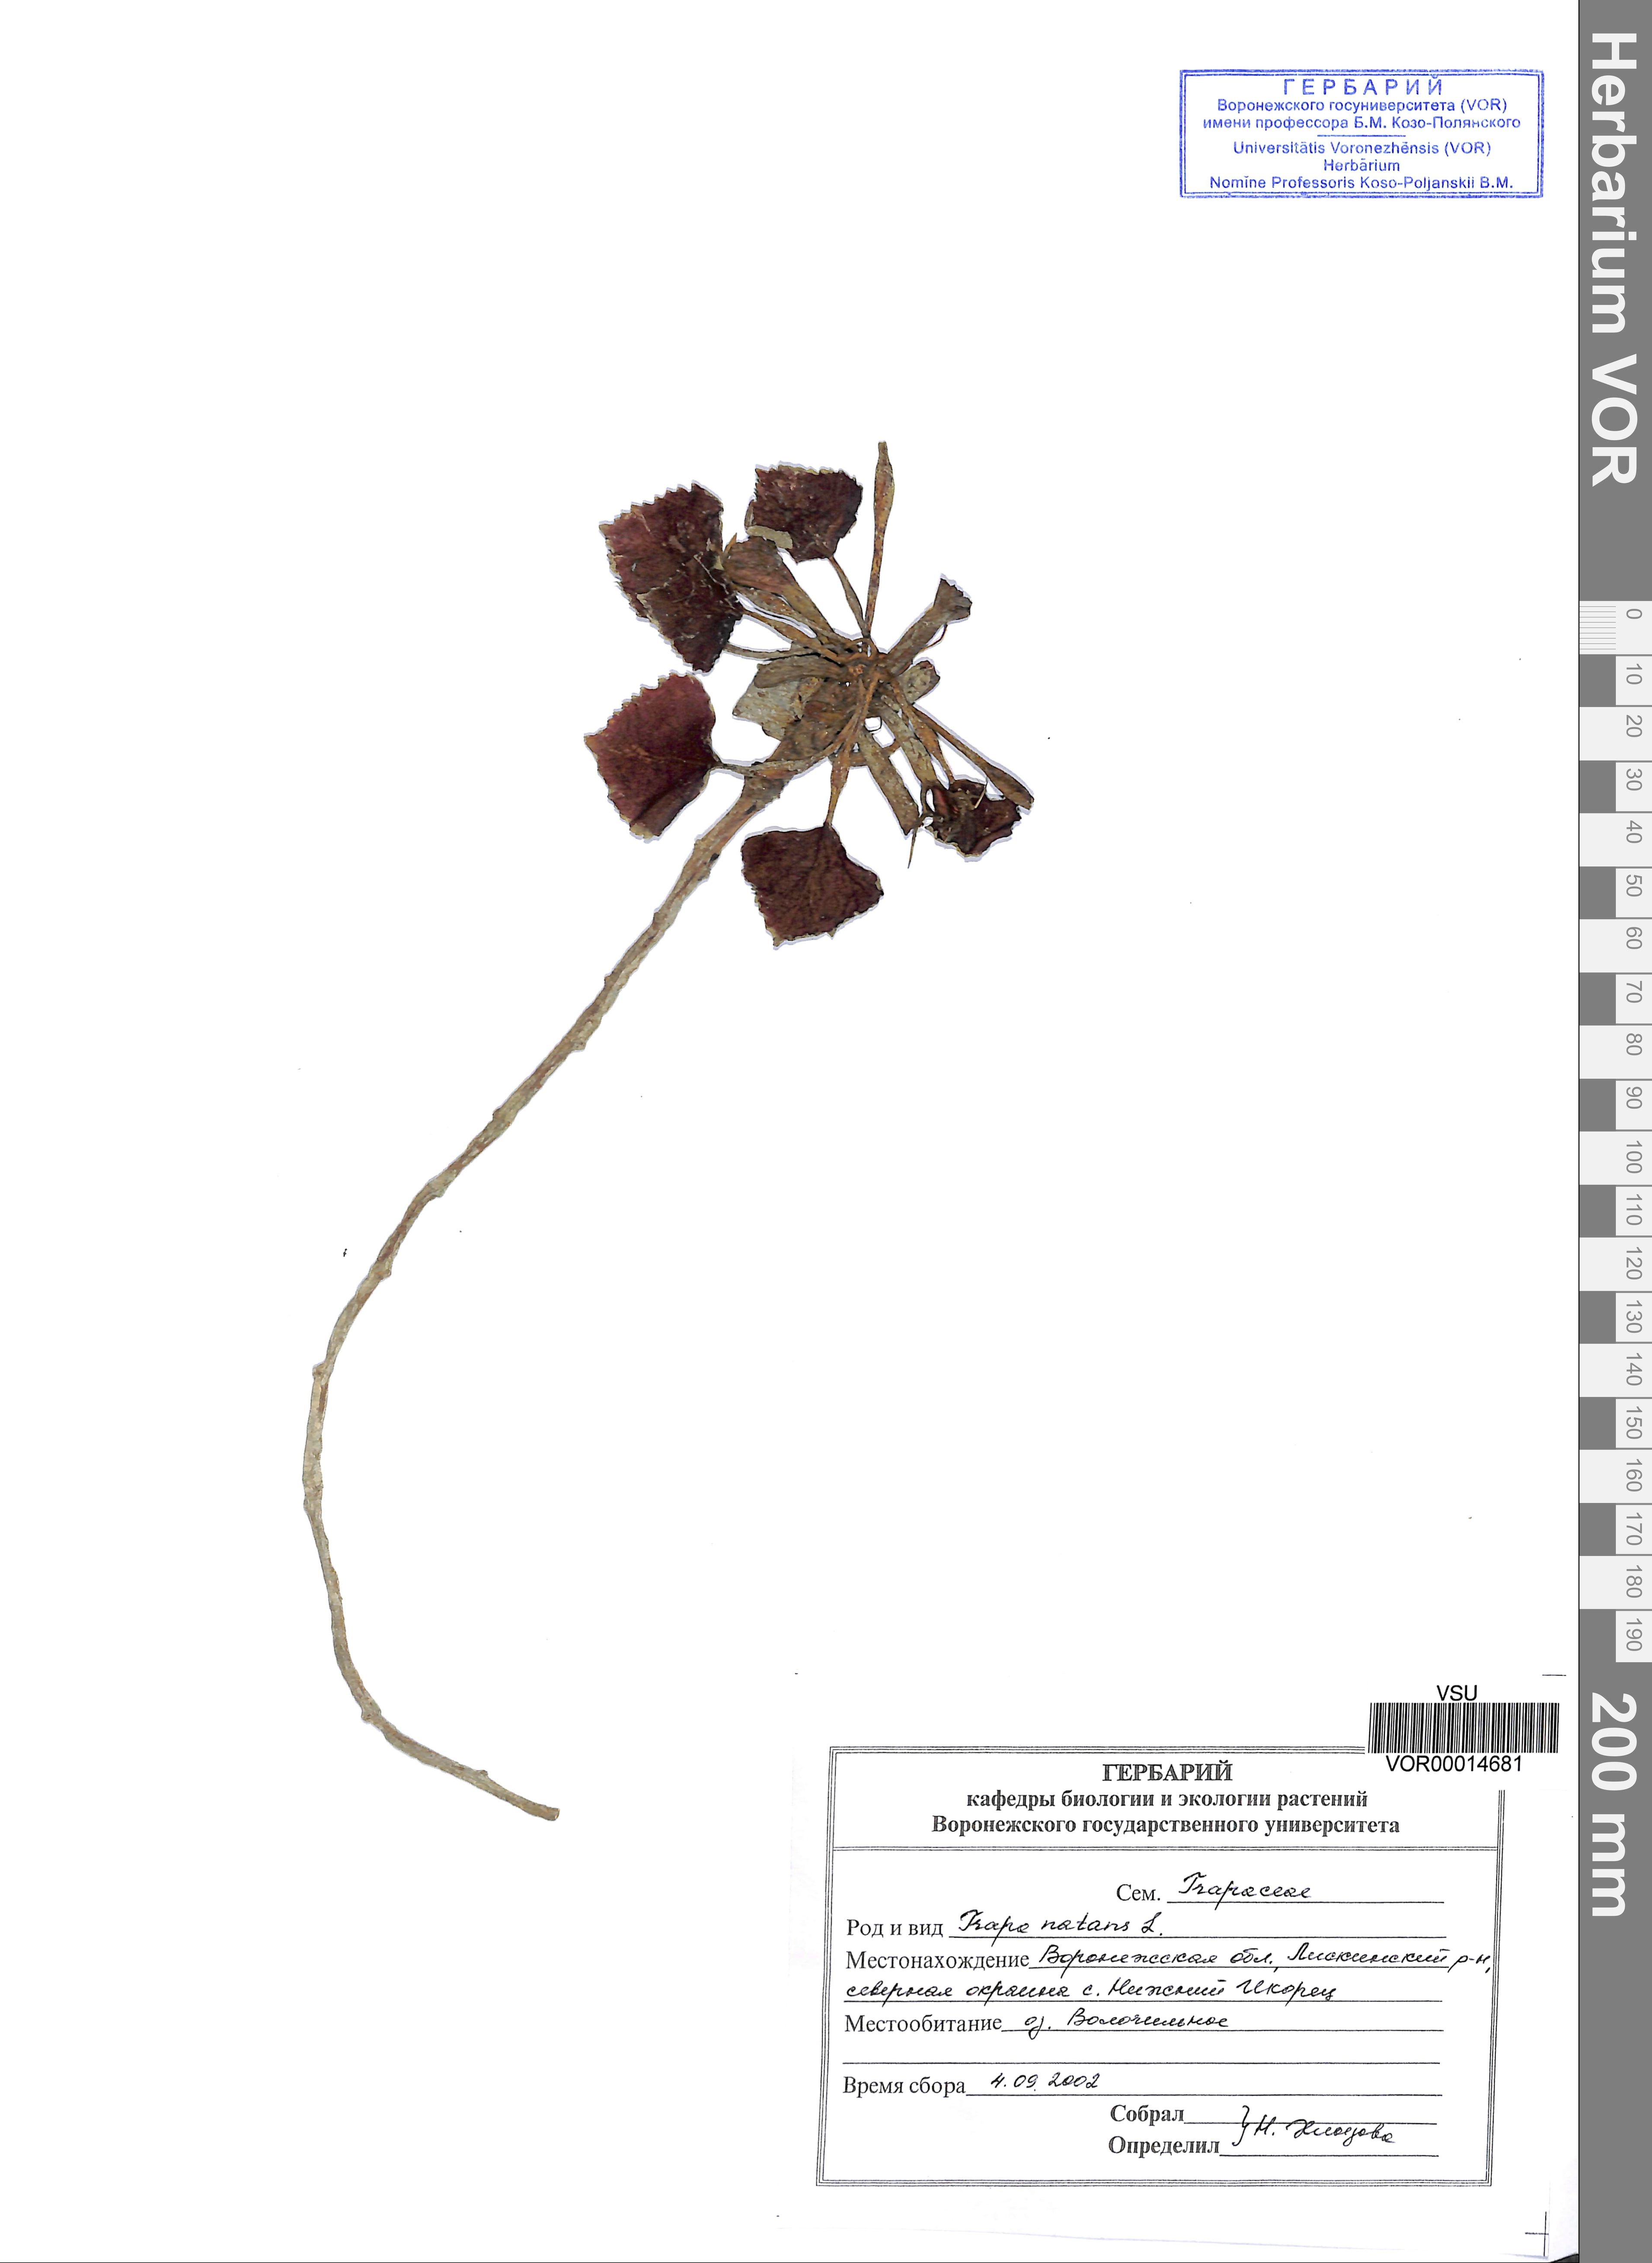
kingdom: Plantae
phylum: Tracheophyta
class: Magnoliopsida
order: Myrtales
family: Lythraceae
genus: Trapa
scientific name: Trapa natans
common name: Water chestnut
